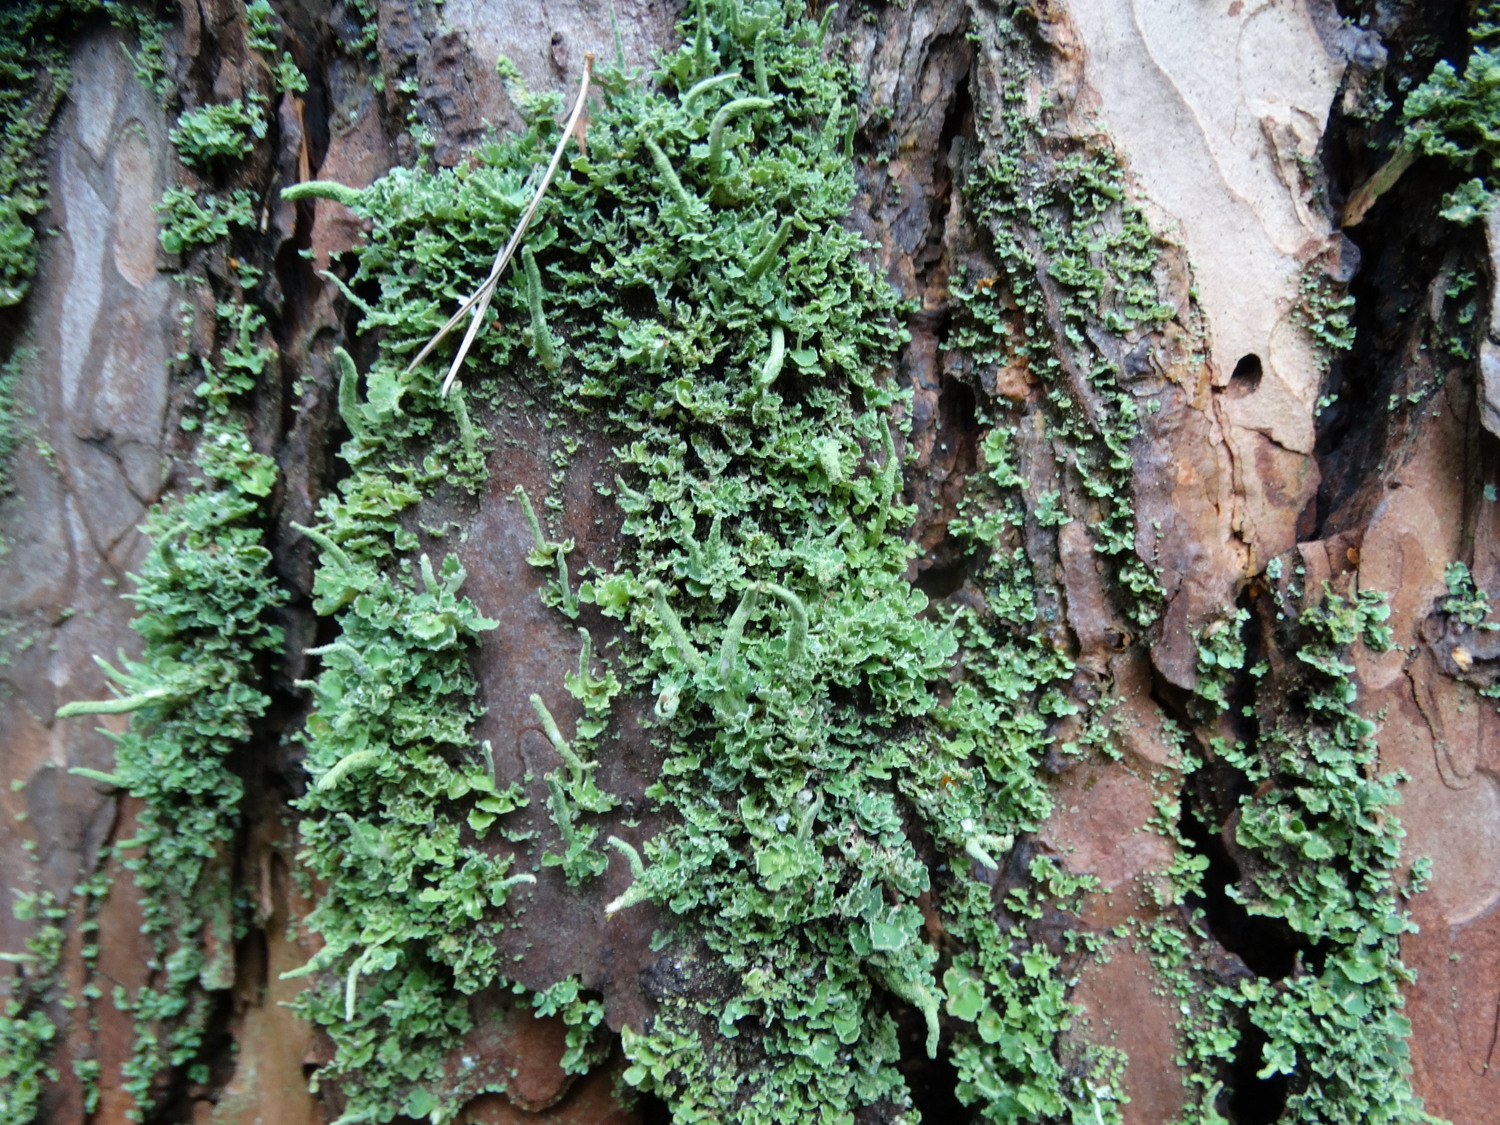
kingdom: Fungi
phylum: Ascomycota
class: Lecanoromycetes
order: Lecanorales
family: Cladoniaceae
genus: Cladonia
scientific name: Cladonia coniocraea
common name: træfods-bægerlav
